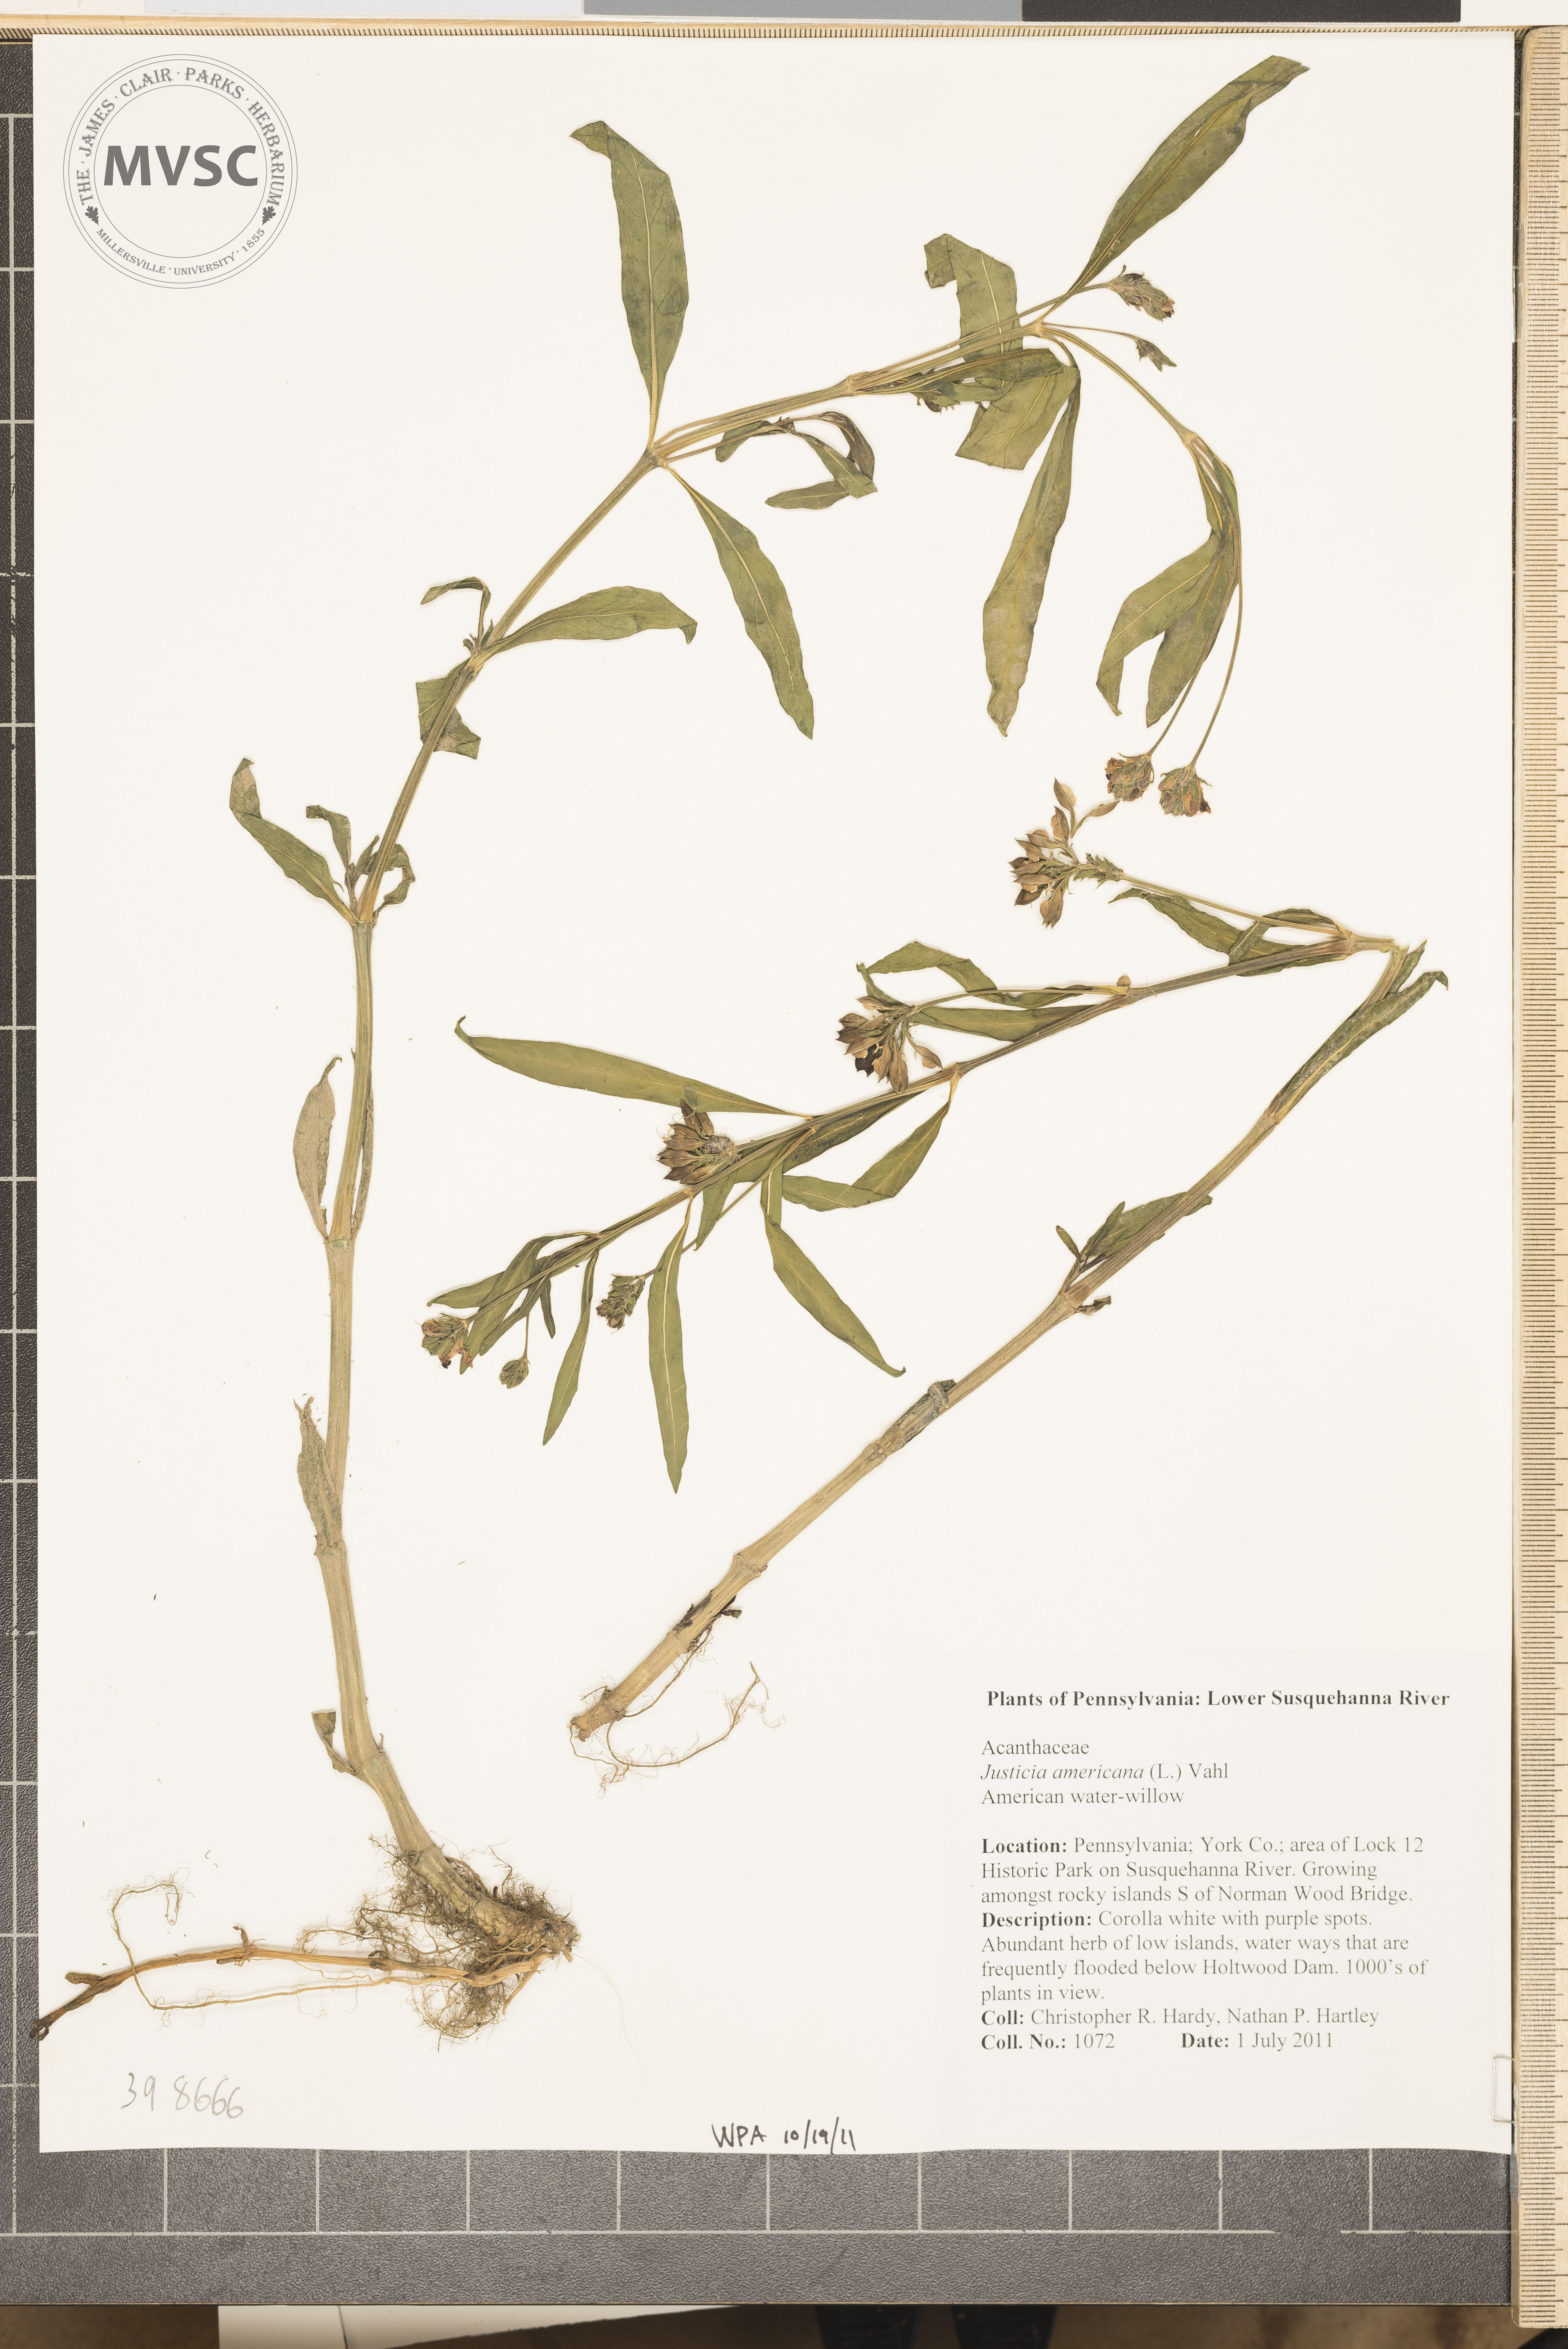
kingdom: Plantae
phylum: Tracheophyta
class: Magnoliopsida
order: Lamiales
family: Acanthaceae
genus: Dianthera
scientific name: Dianthera americana
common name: Water-willow
